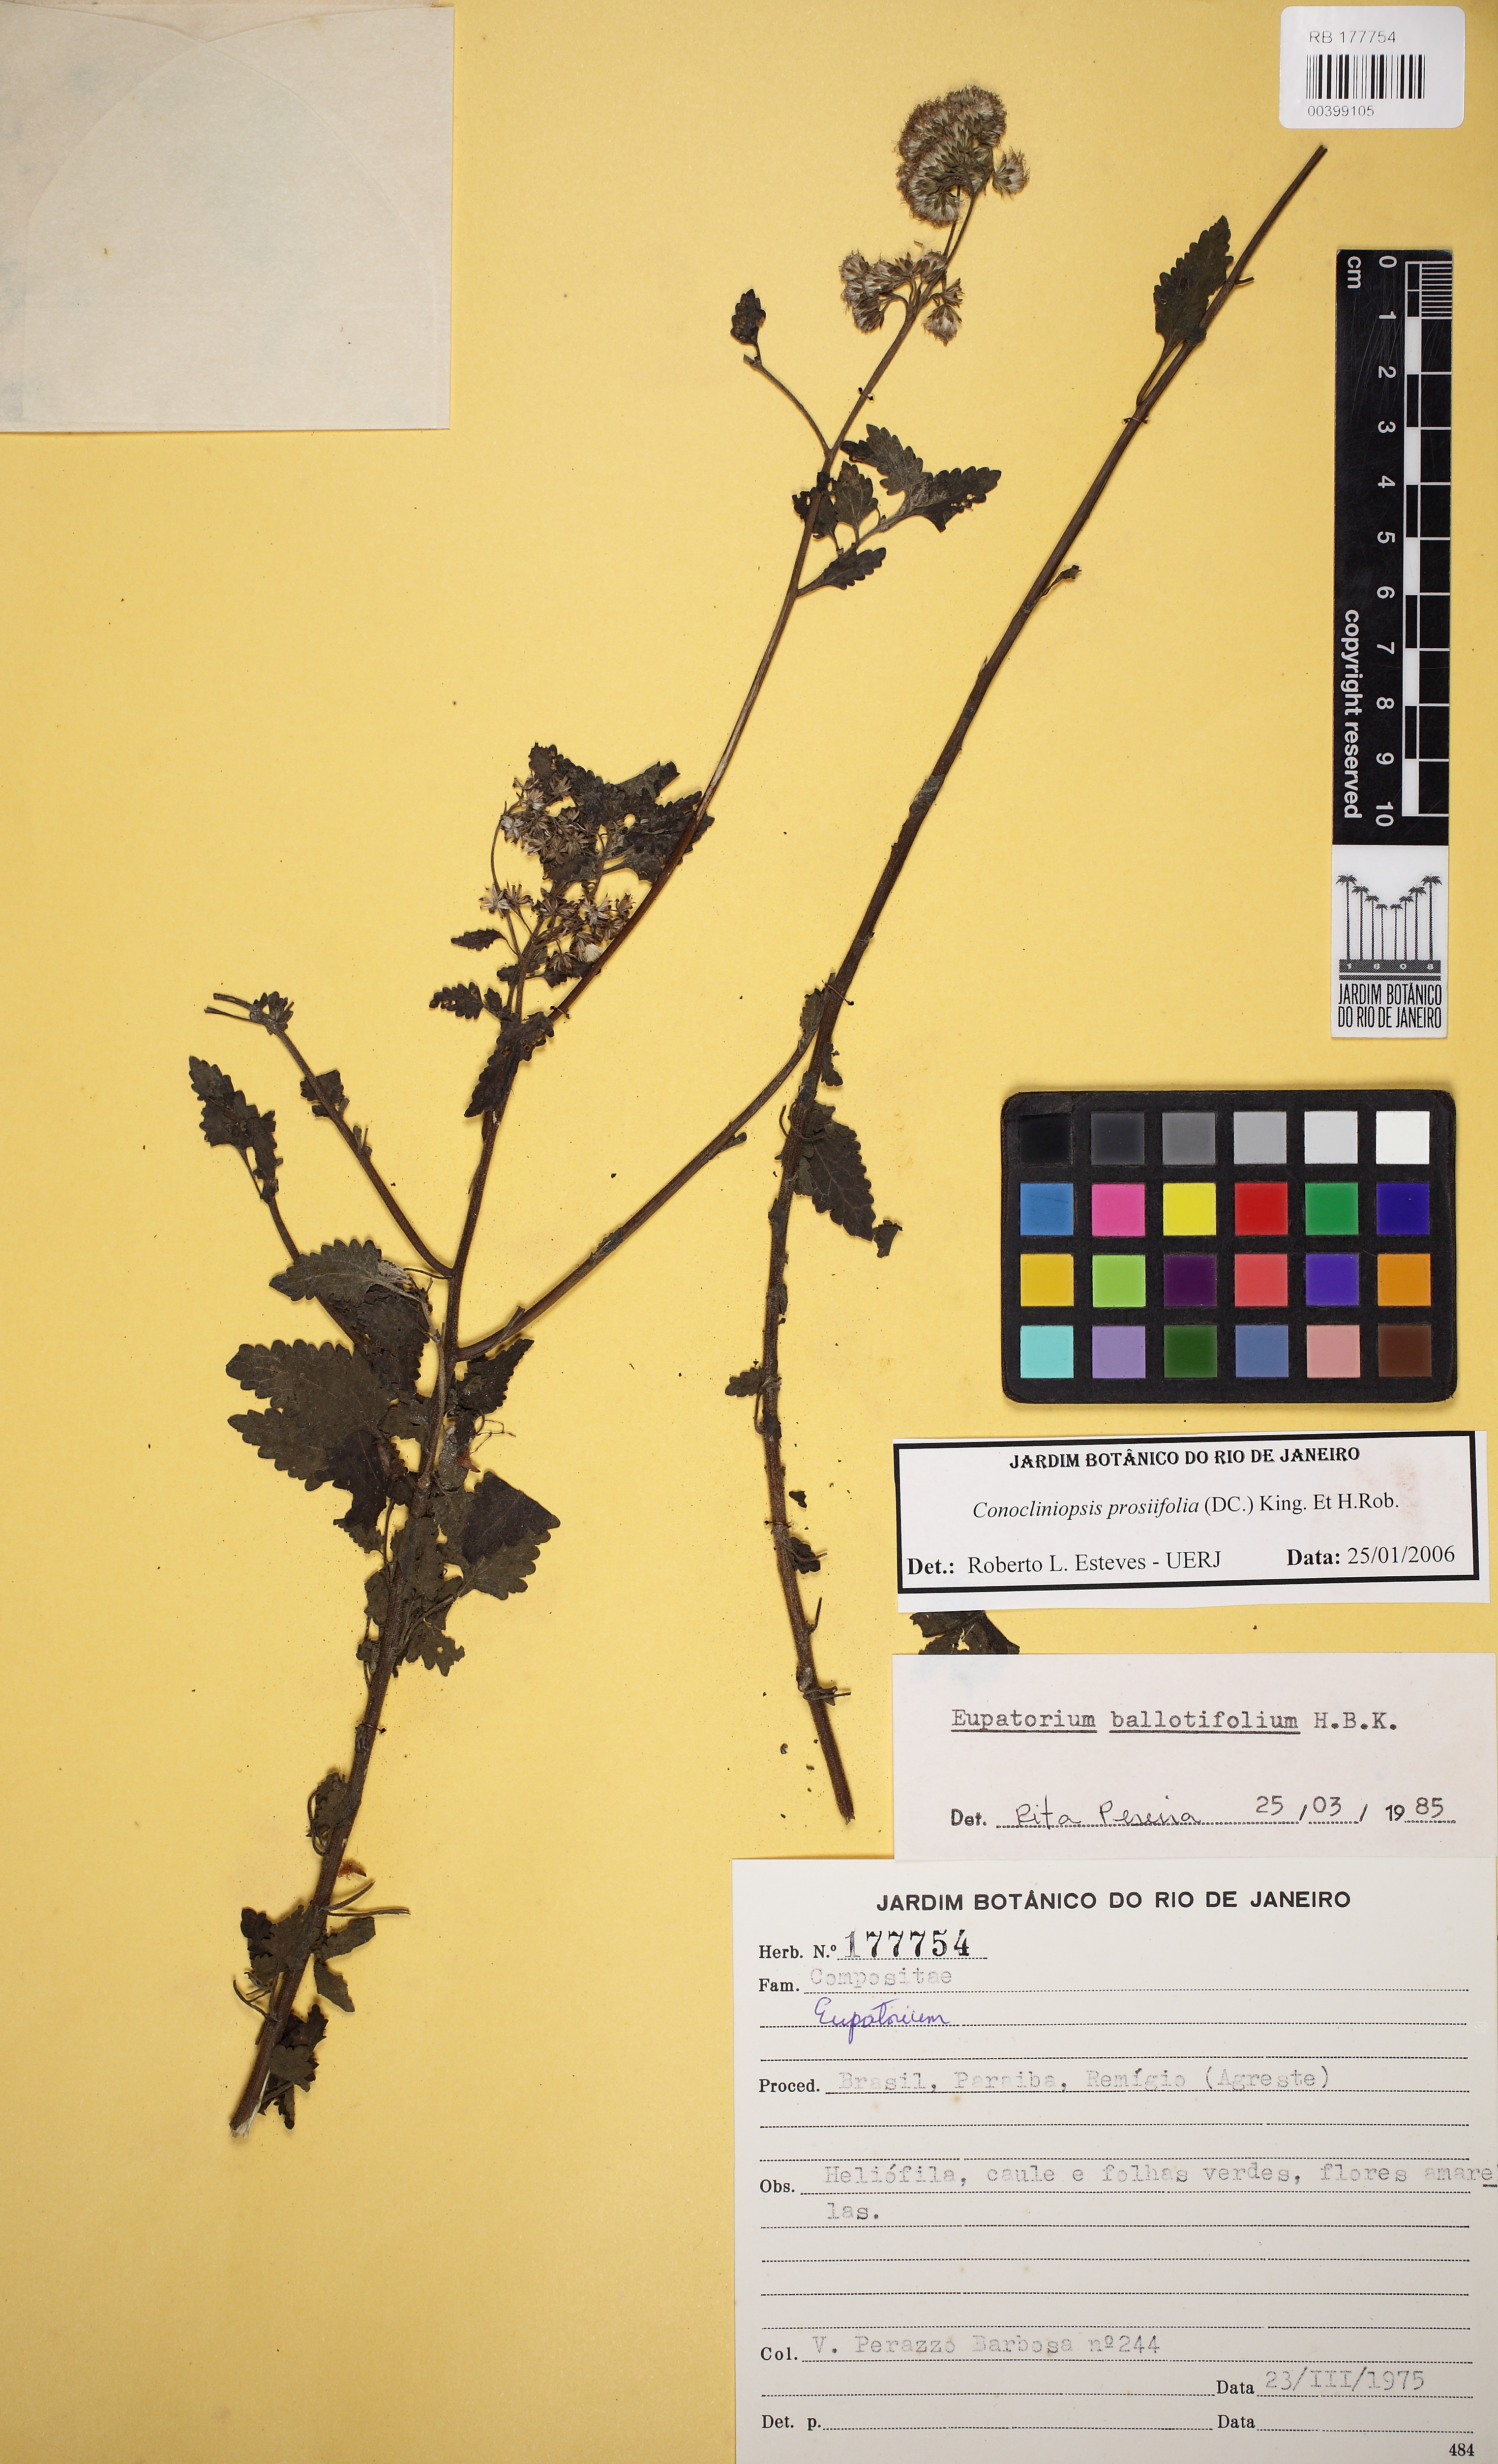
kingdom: Plantae
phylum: Tracheophyta
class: Magnoliopsida
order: Asterales
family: Asteraceae
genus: Conocliniopsis
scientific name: Conocliniopsis grossedentata
